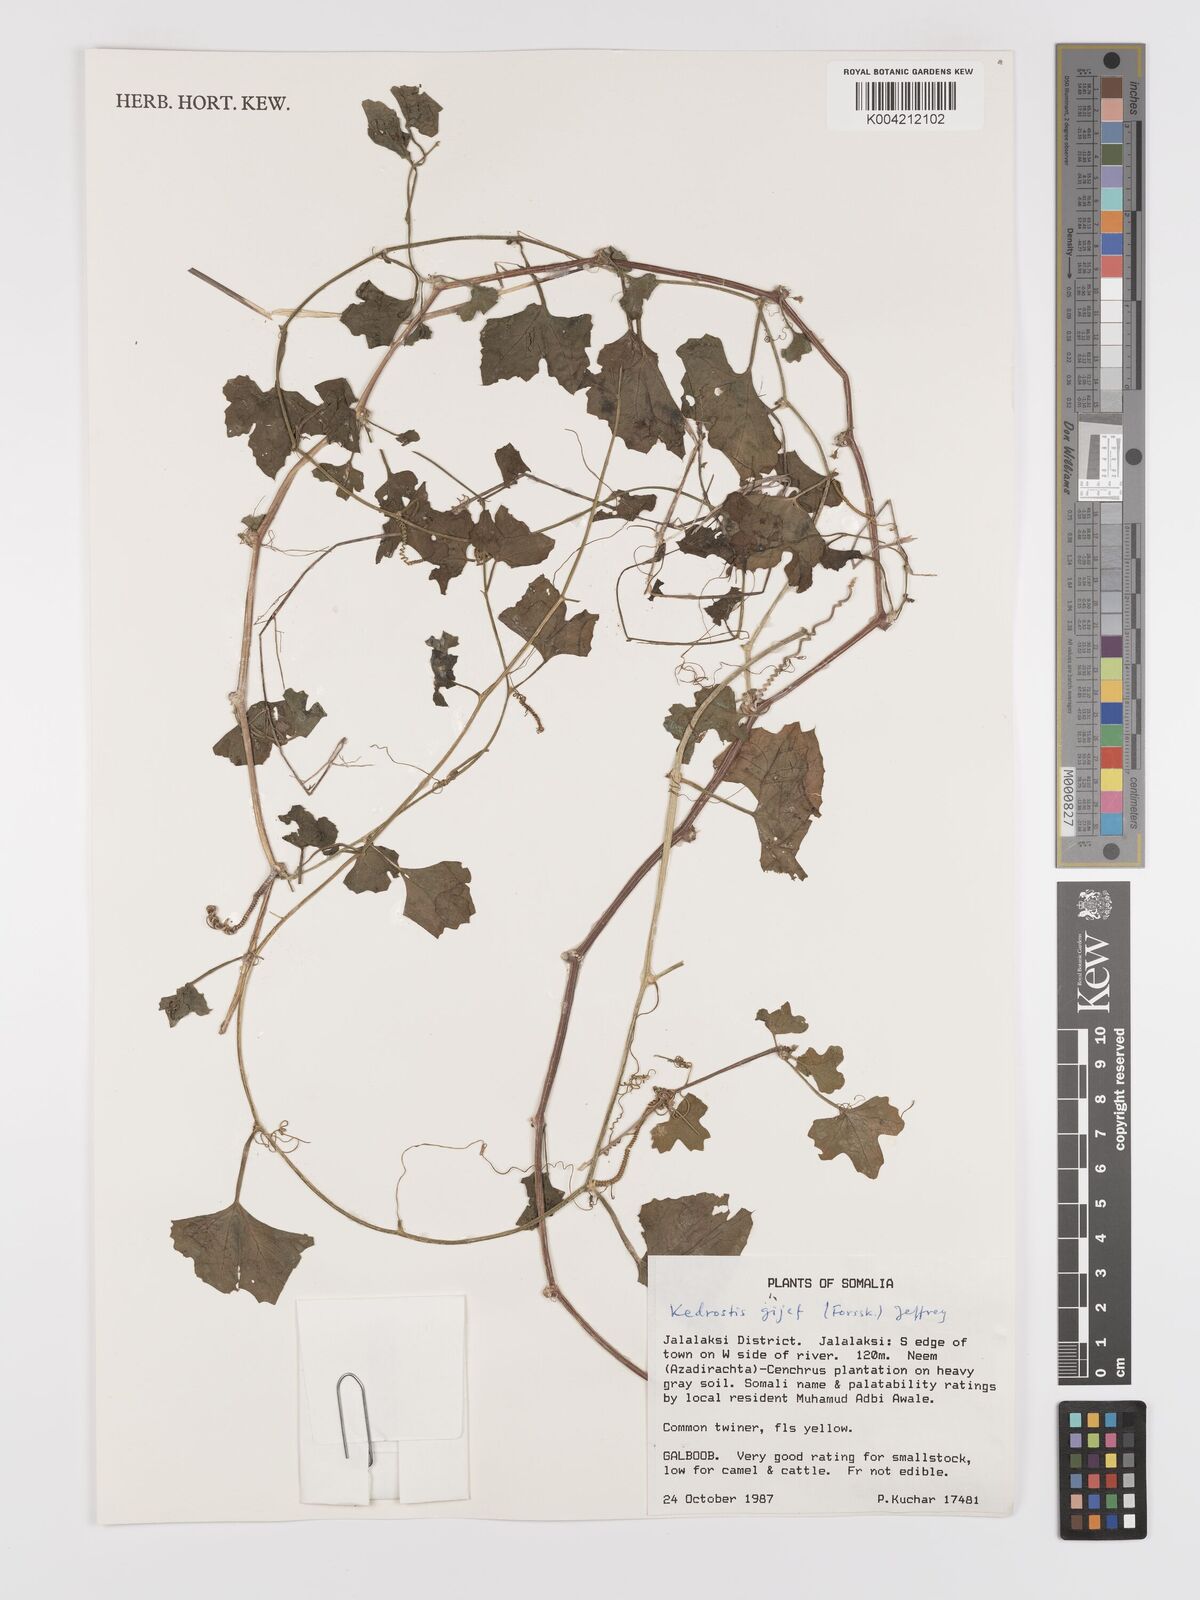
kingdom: Plantae
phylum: Tracheophyta
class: Magnoliopsida
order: Cucurbitales
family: Cucurbitaceae
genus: Kedrostis
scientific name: Kedrostis gijef
